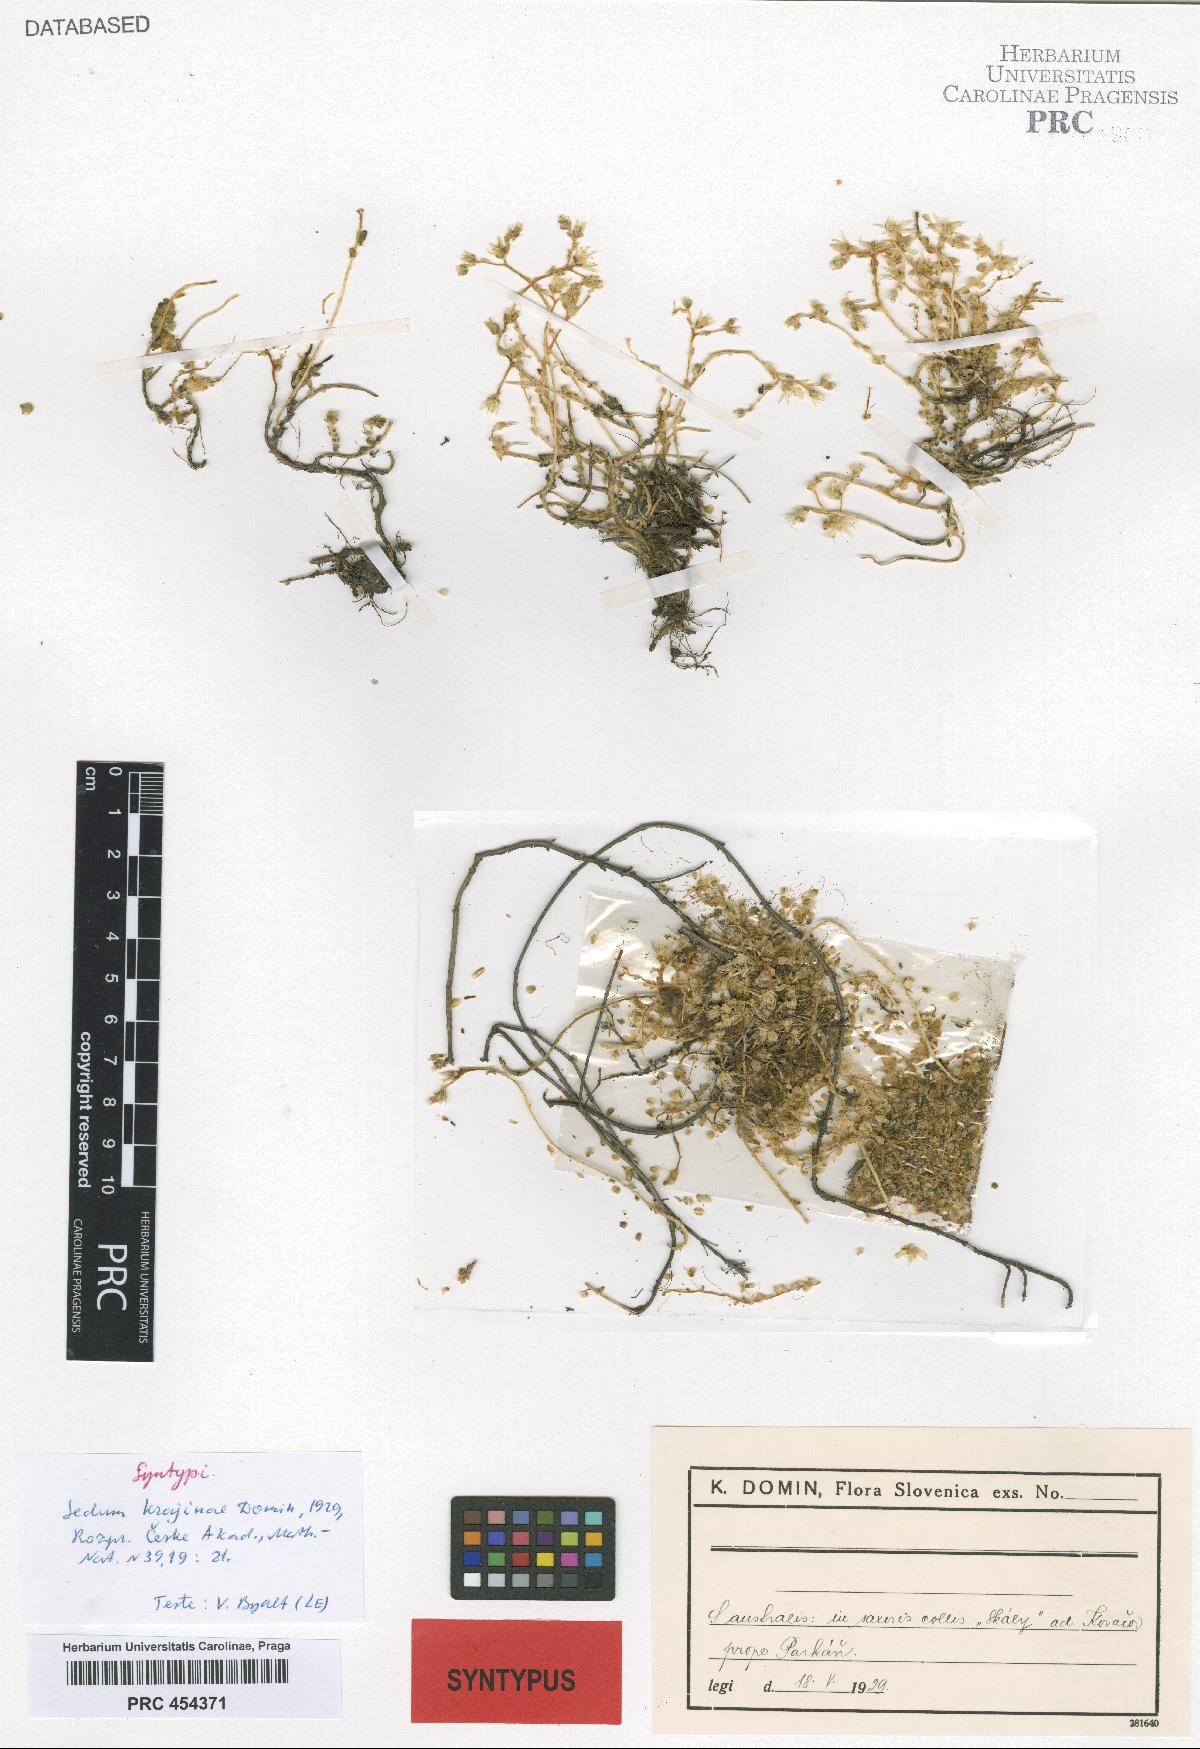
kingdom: Plantae
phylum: Tracheophyta
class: Magnoliopsida
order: Saxifragales
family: Crassulaceae
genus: Sedum
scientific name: Sedum acre
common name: Biting stonecrop
